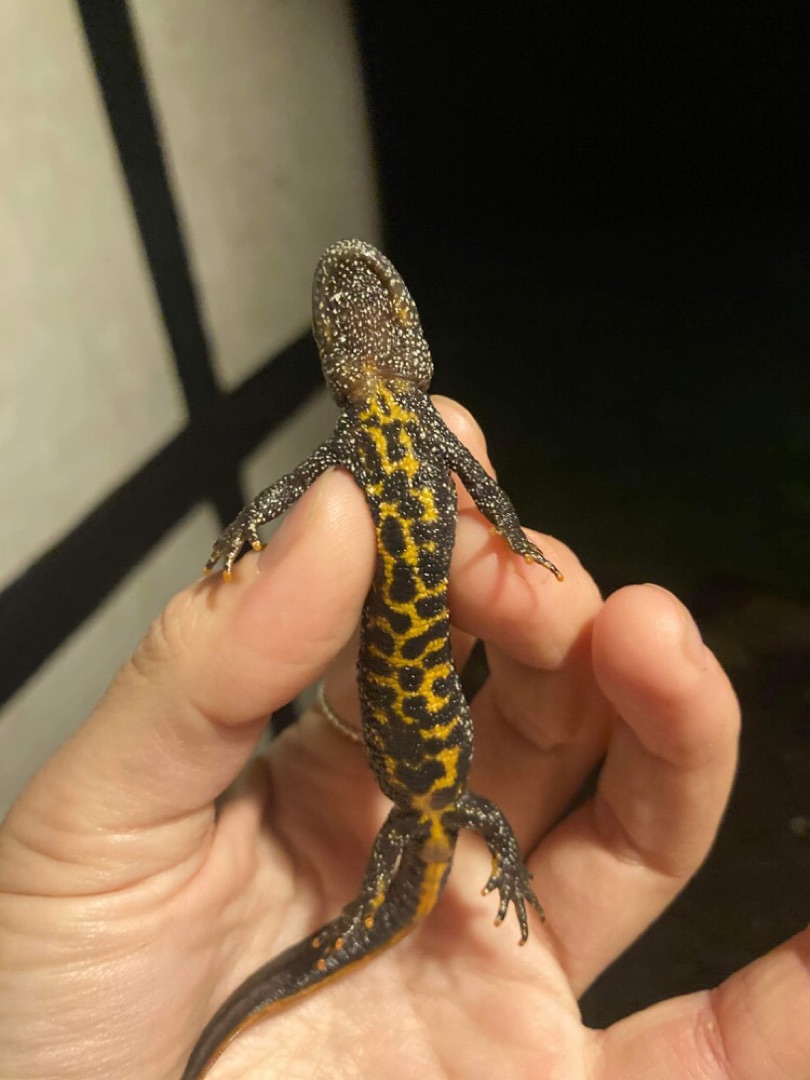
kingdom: Animalia
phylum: Chordata
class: Amphibia
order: Caudata
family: Salamandridae
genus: Triturus
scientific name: Triturus cristatus
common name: Stor vandsalamander
